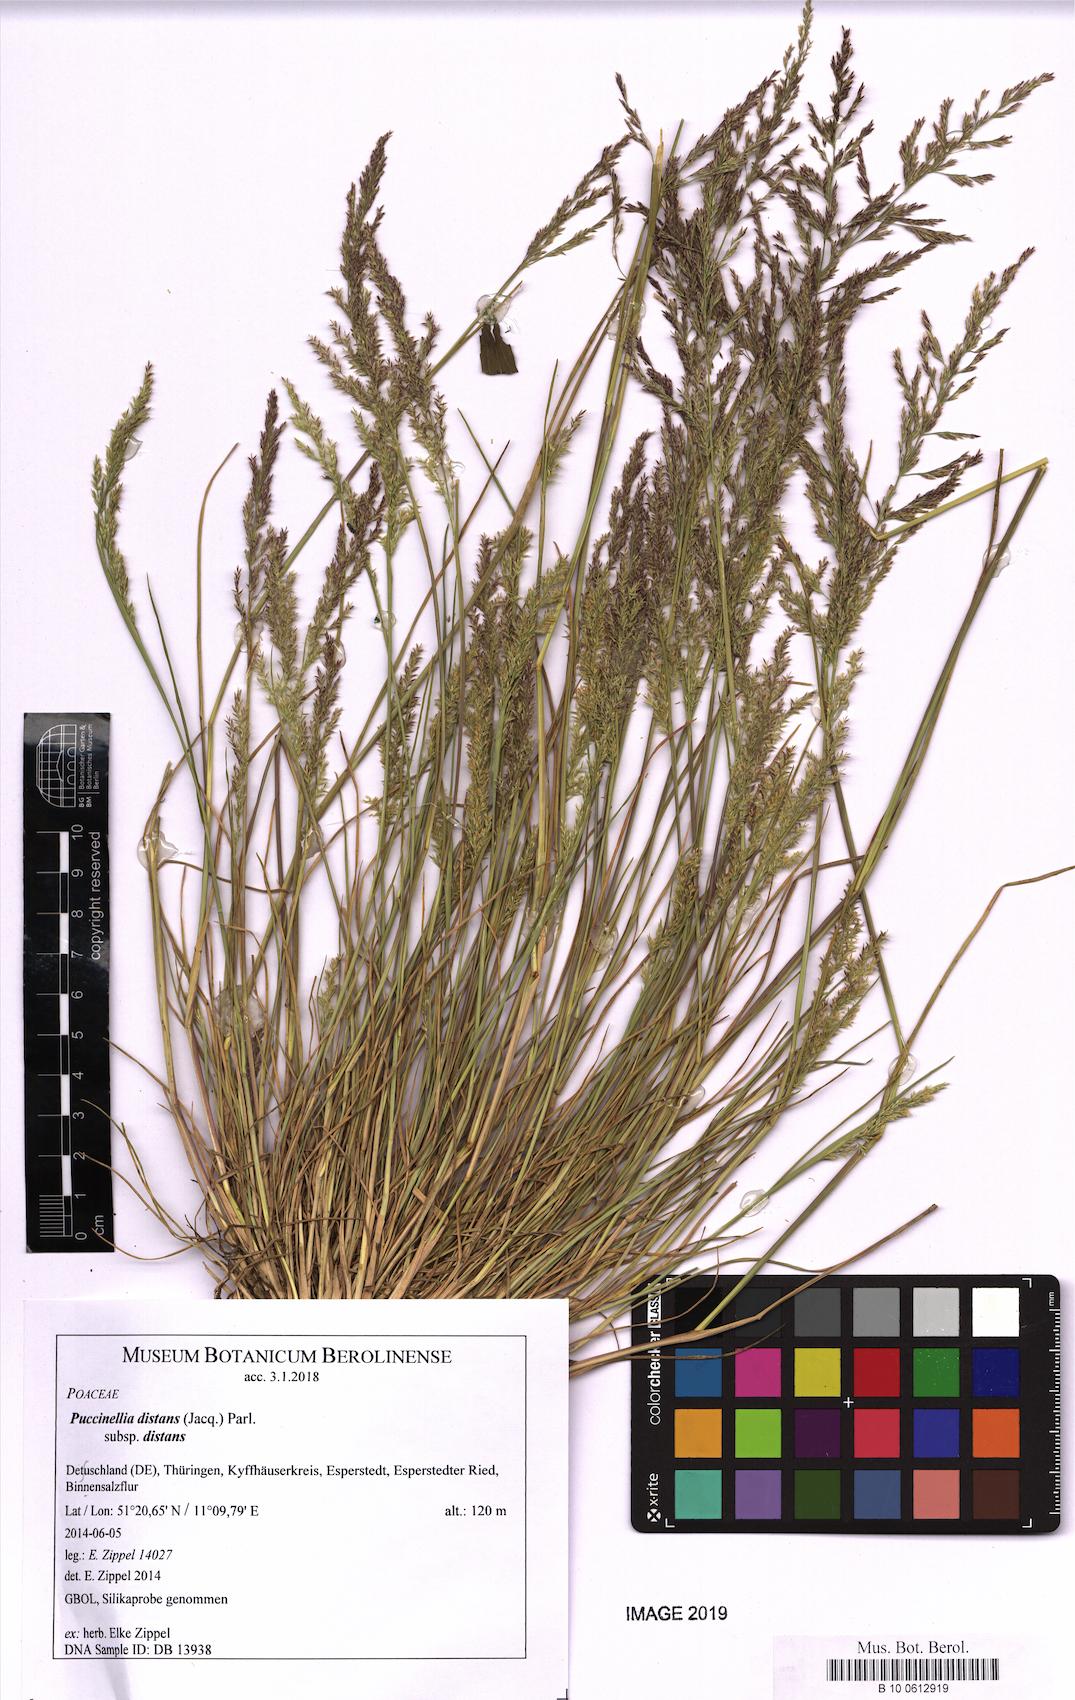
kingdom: Plantae
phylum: Tracheophyta
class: Liliopsida
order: Poales
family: Poaceae
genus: Puccinellia
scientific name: Puccinellia distans
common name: Weeping alkaligrass
